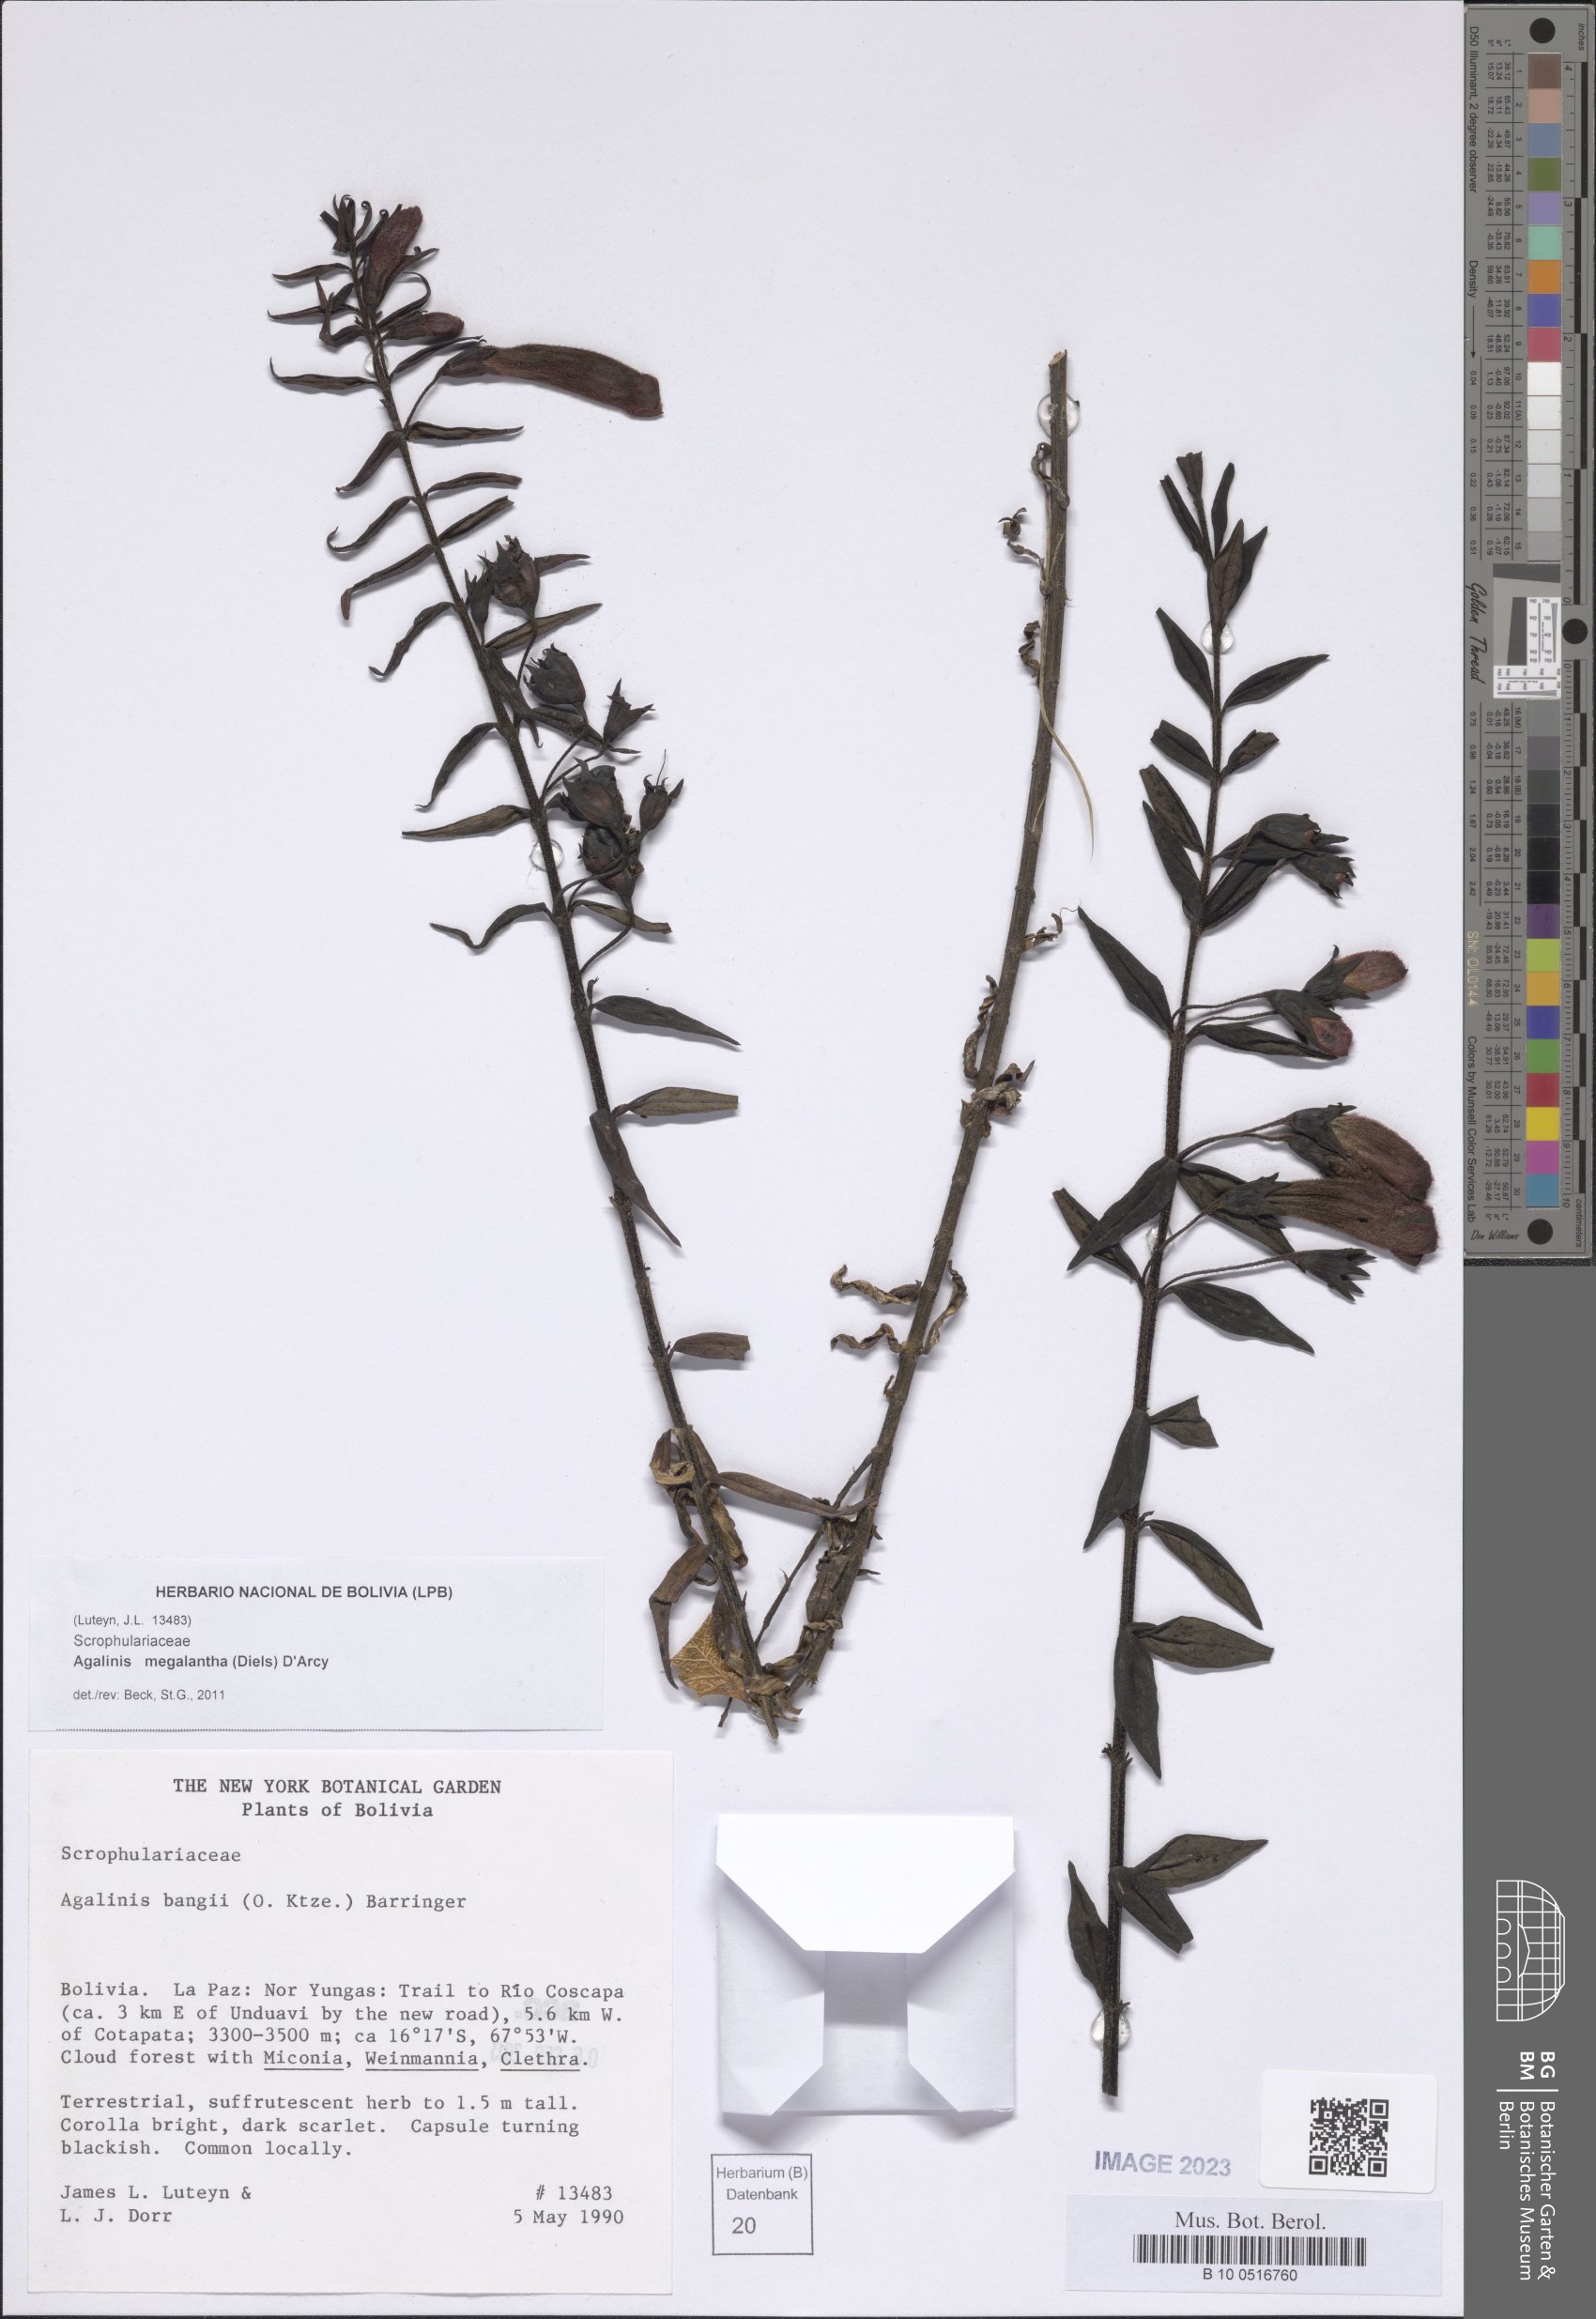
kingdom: Plantae
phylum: Tracheophyta
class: Magnoliopsida
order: Lamiales
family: Orobanchaceae
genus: Agalinis
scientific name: Agalinis megalantha
